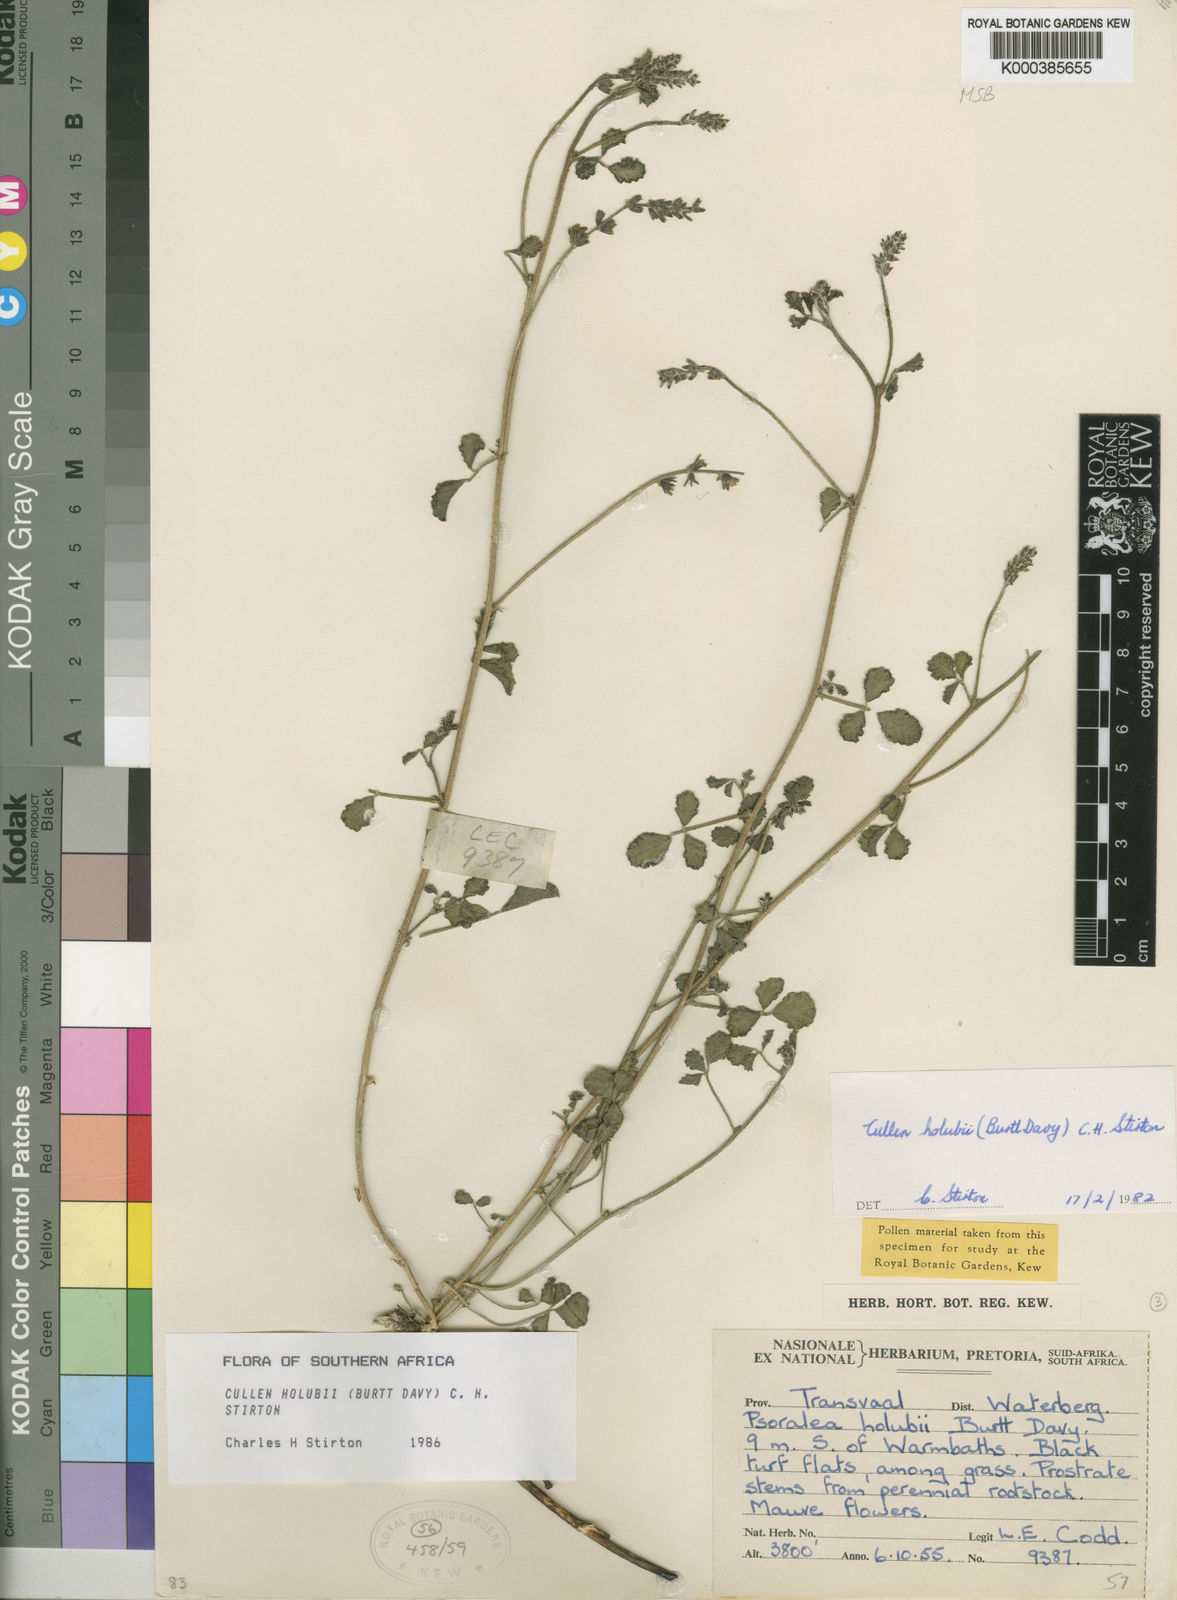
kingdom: Plantae
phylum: Tracheophyta
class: Magnoliopsida
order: Fabales
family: Fabaceae
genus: Cullen
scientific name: Cullen tomentosum
